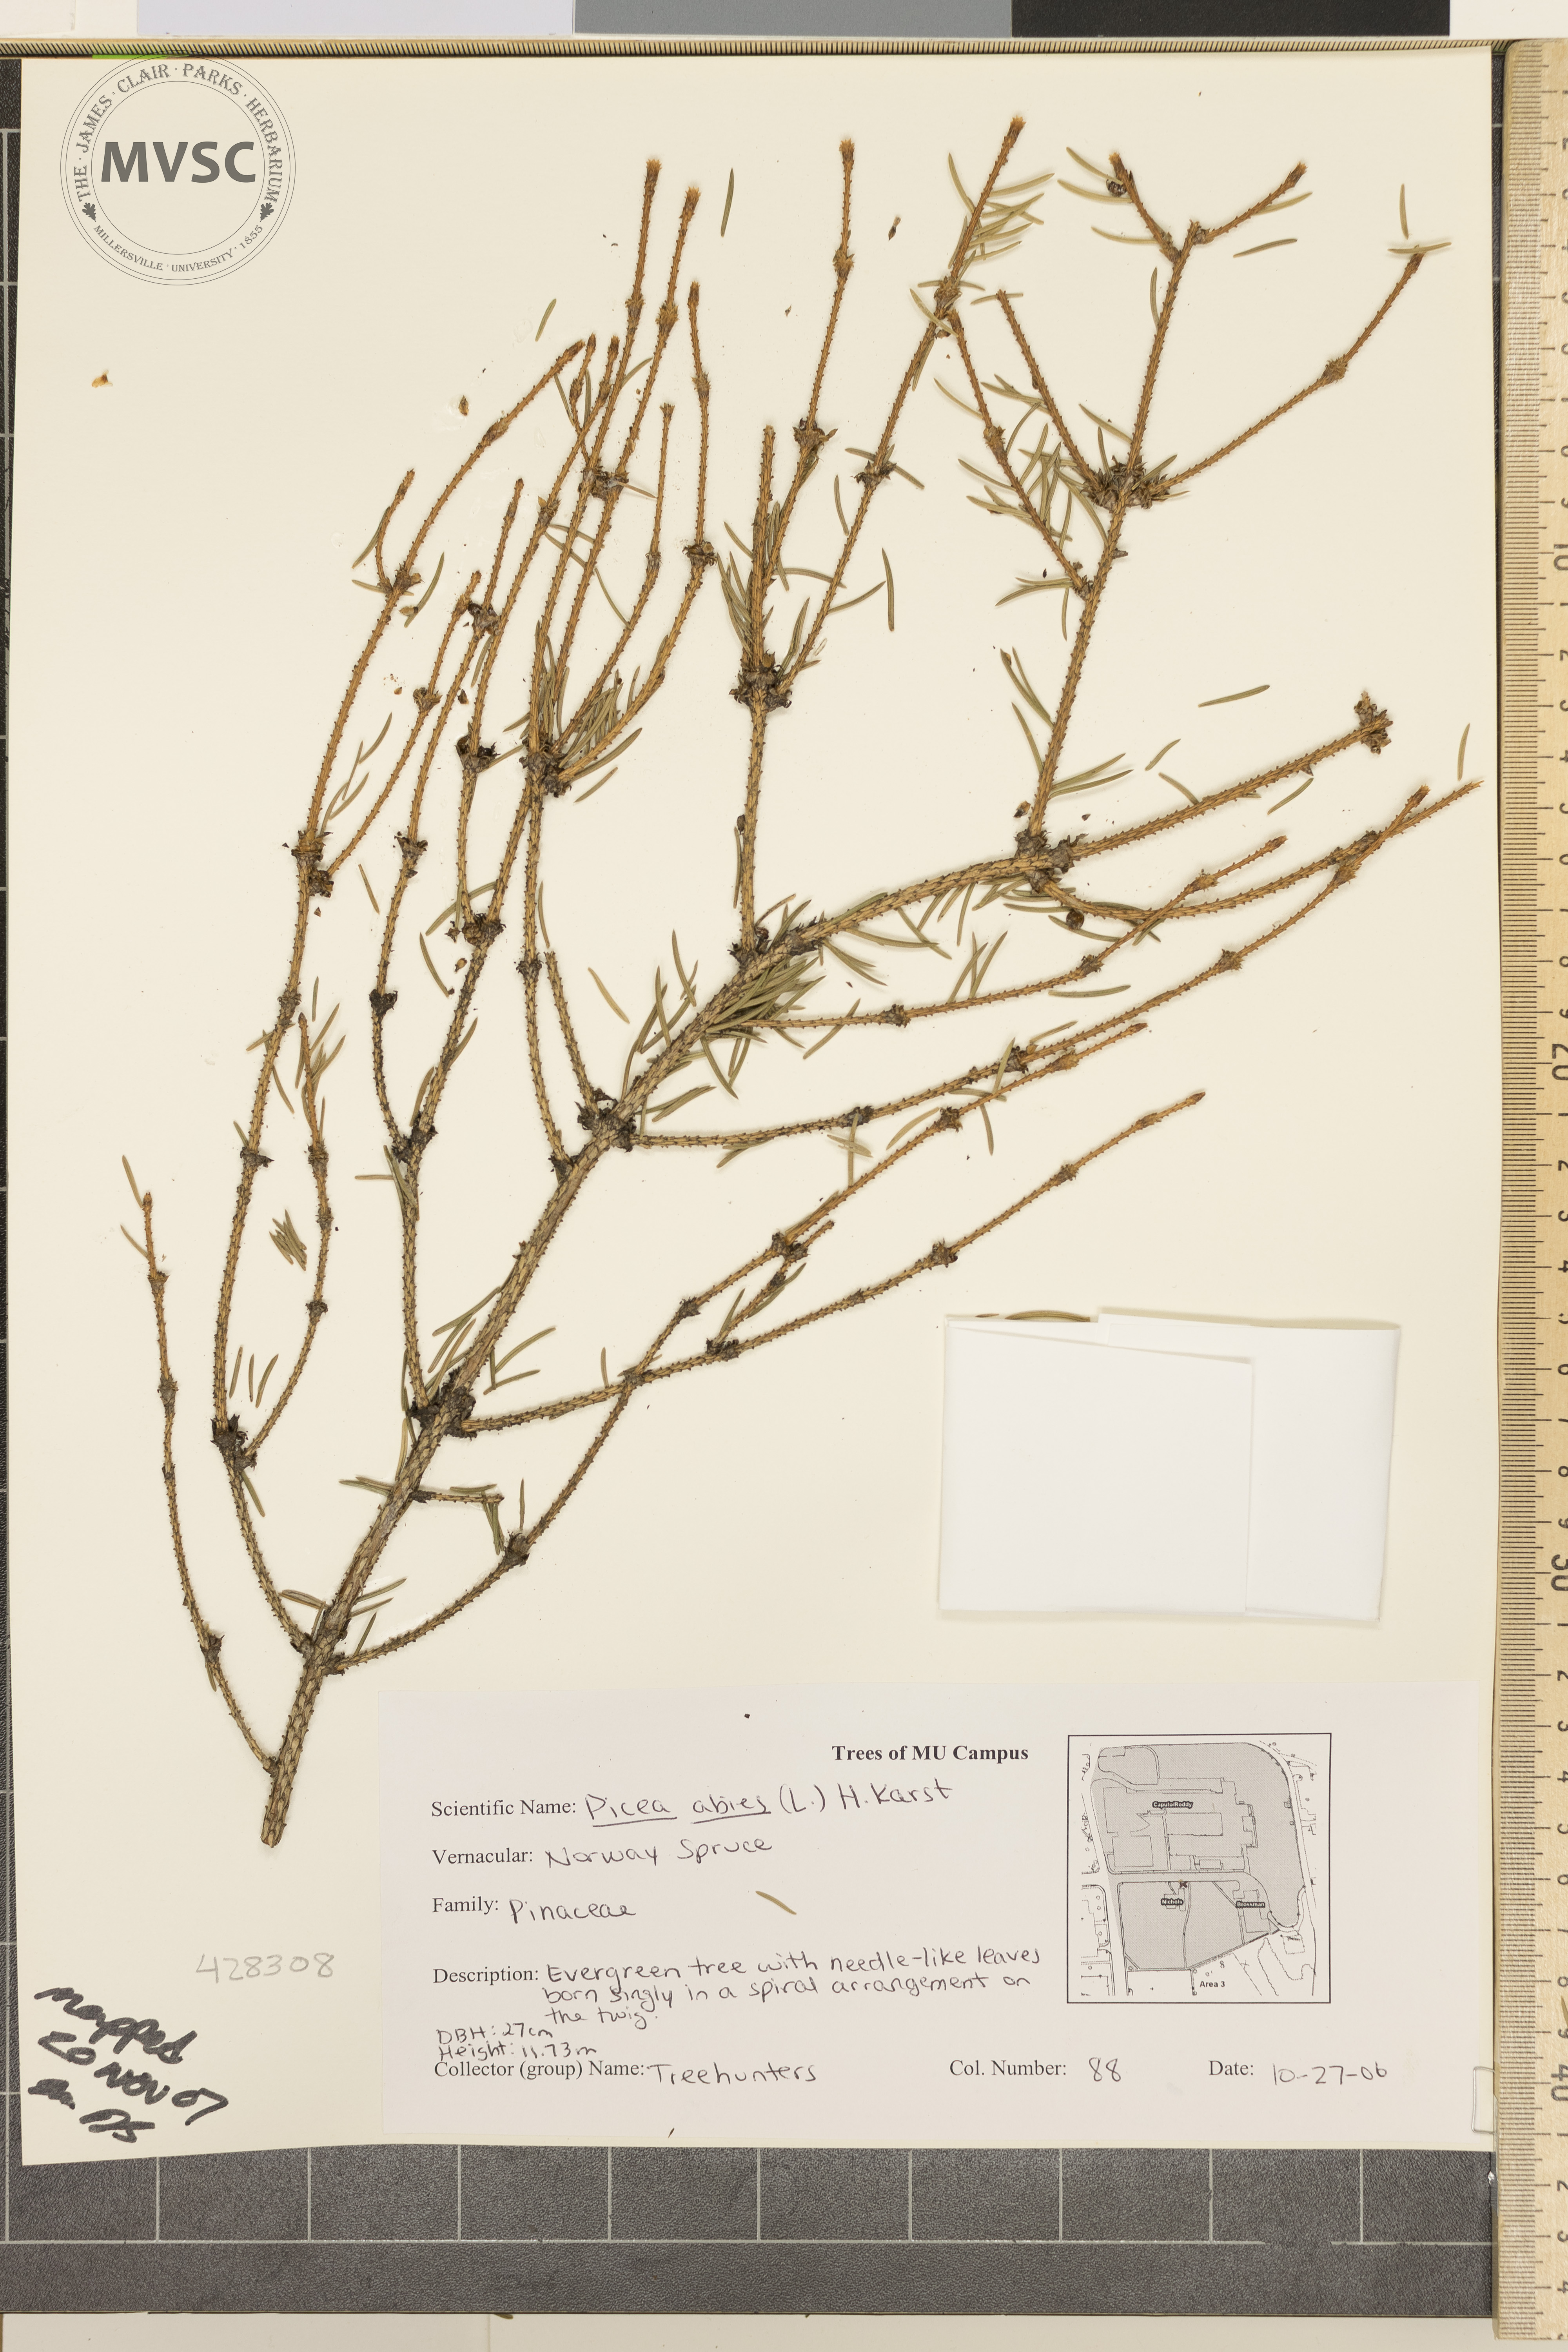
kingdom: Plantae
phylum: Tracheophyta
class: Pinopsida
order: Pinales
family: Pinaceae
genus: Picea
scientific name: Picea abies
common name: Norway Spruce
